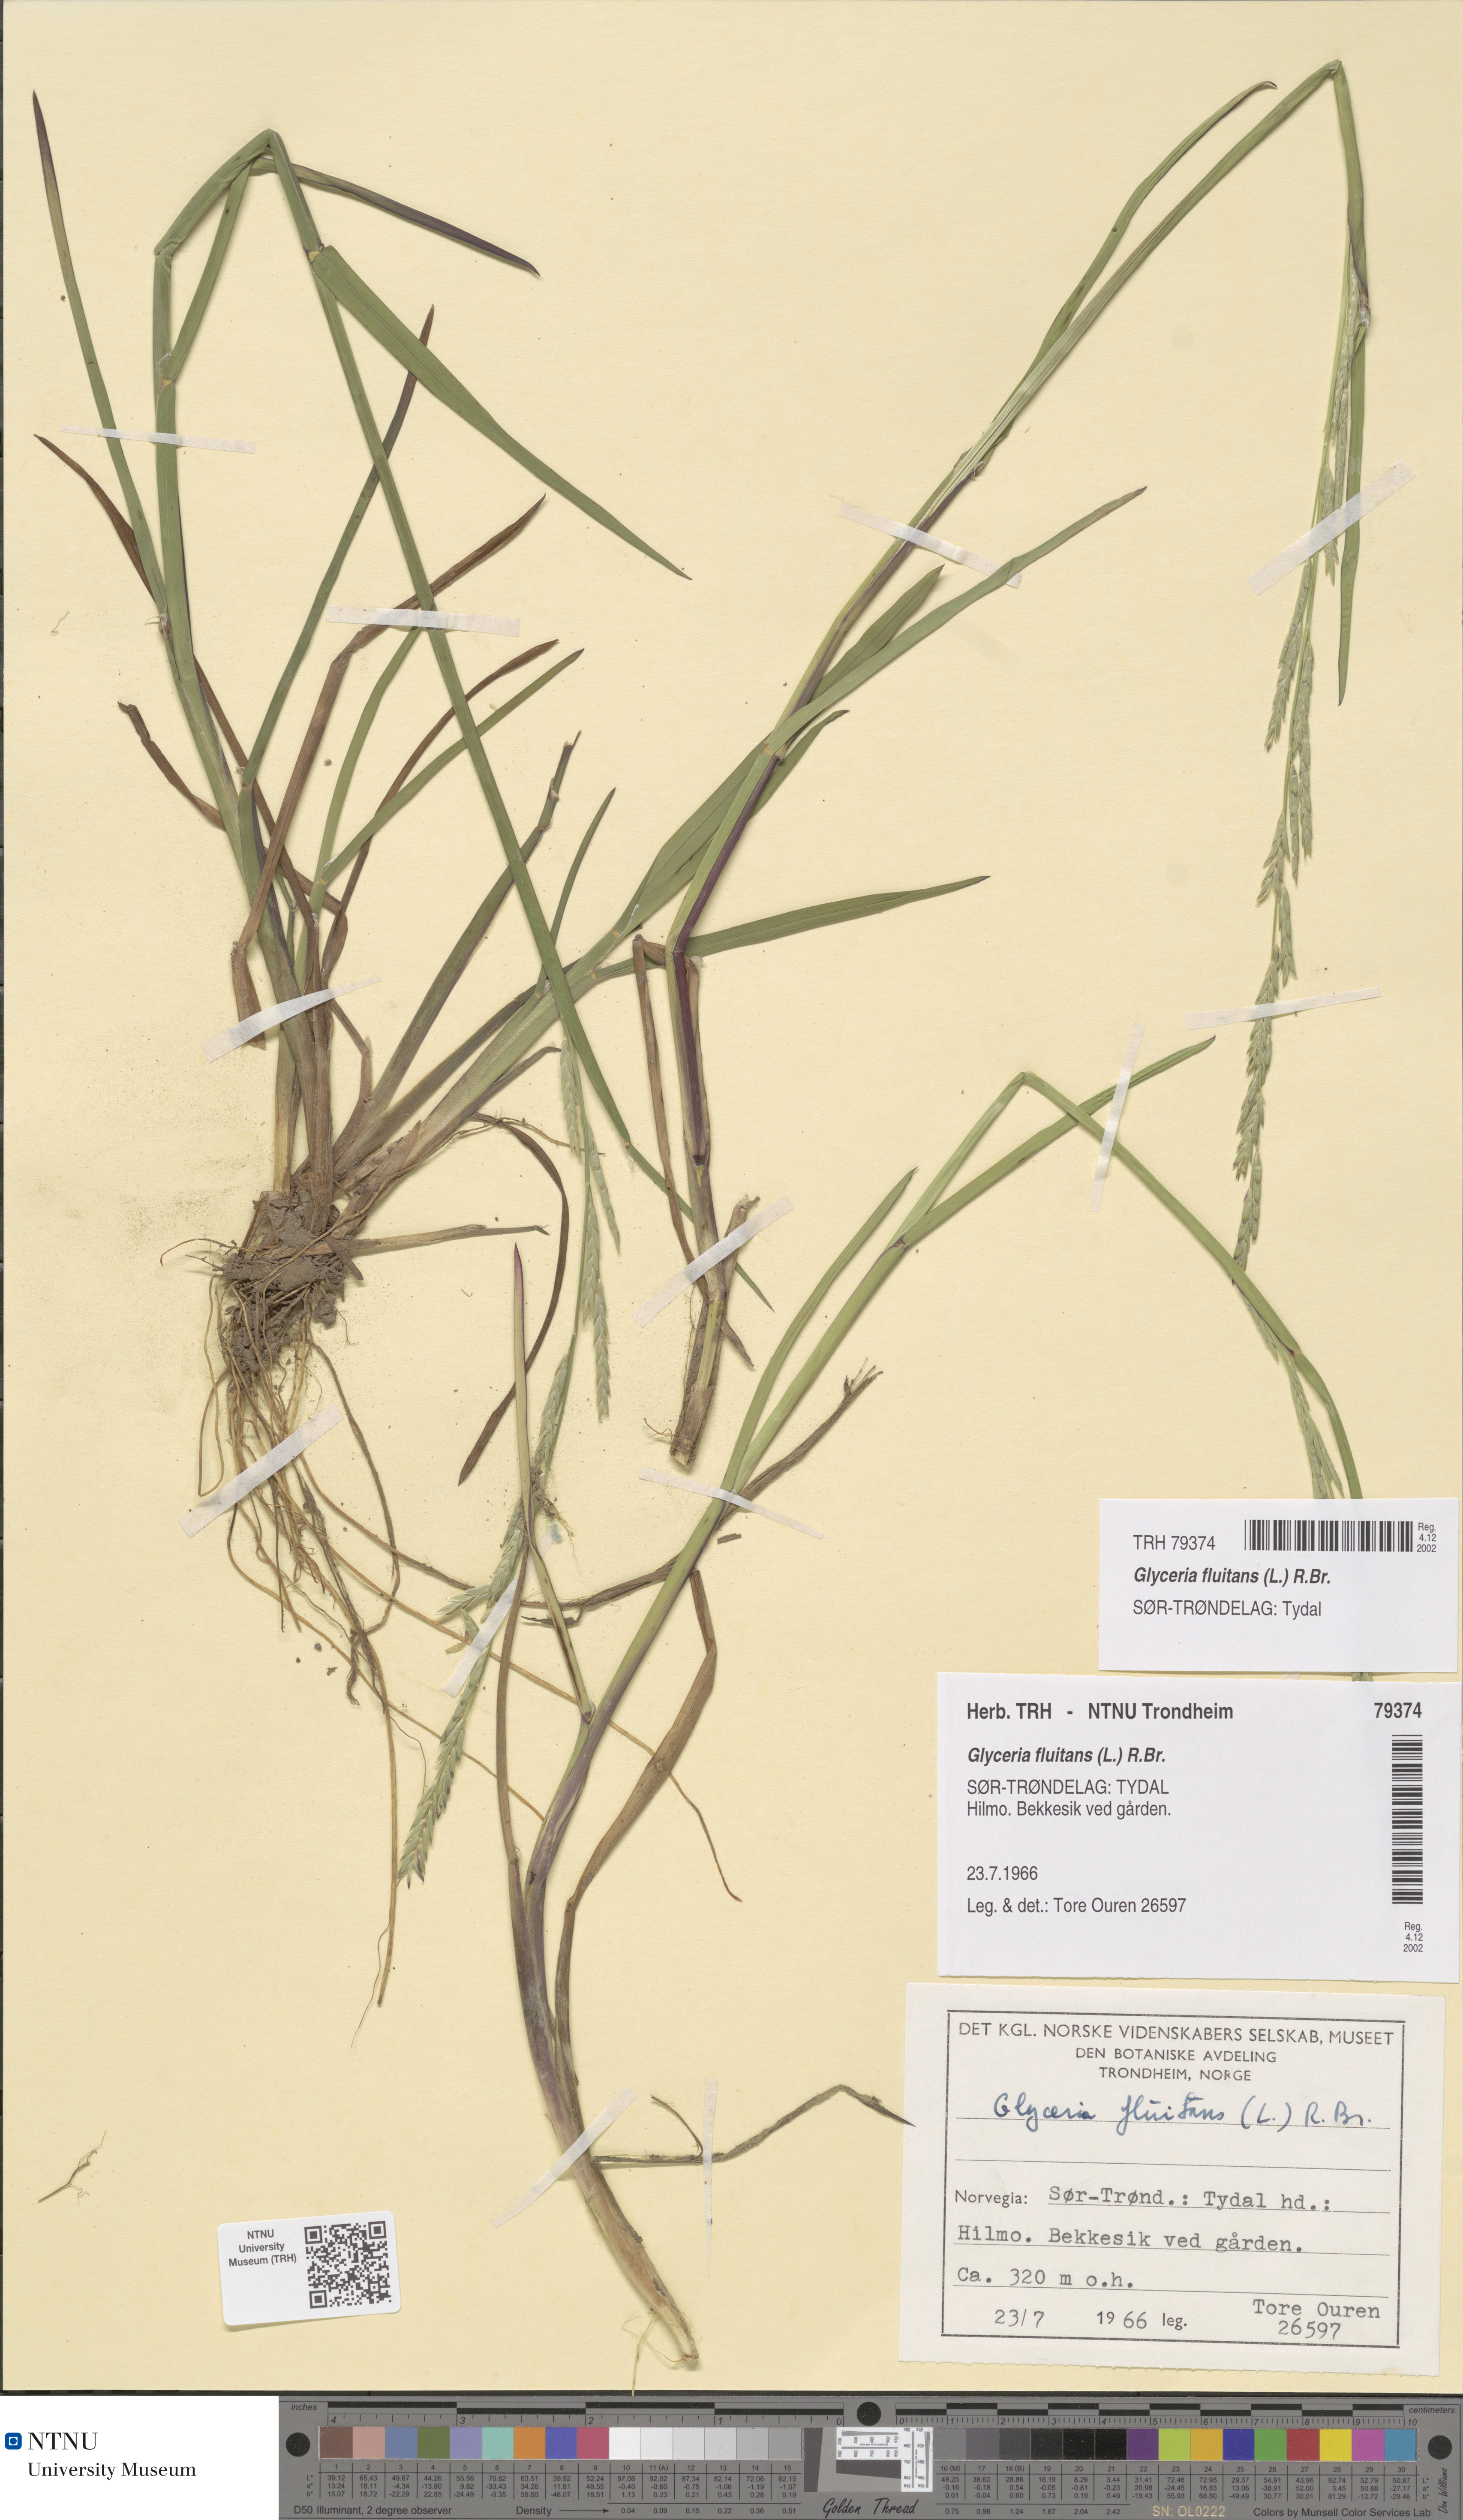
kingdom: Plantae
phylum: Tracheophyta
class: Liliopsida
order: Poales
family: Poaceae
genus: Glyceria
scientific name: Glyceria fluitans
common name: Floating sweet-grass
